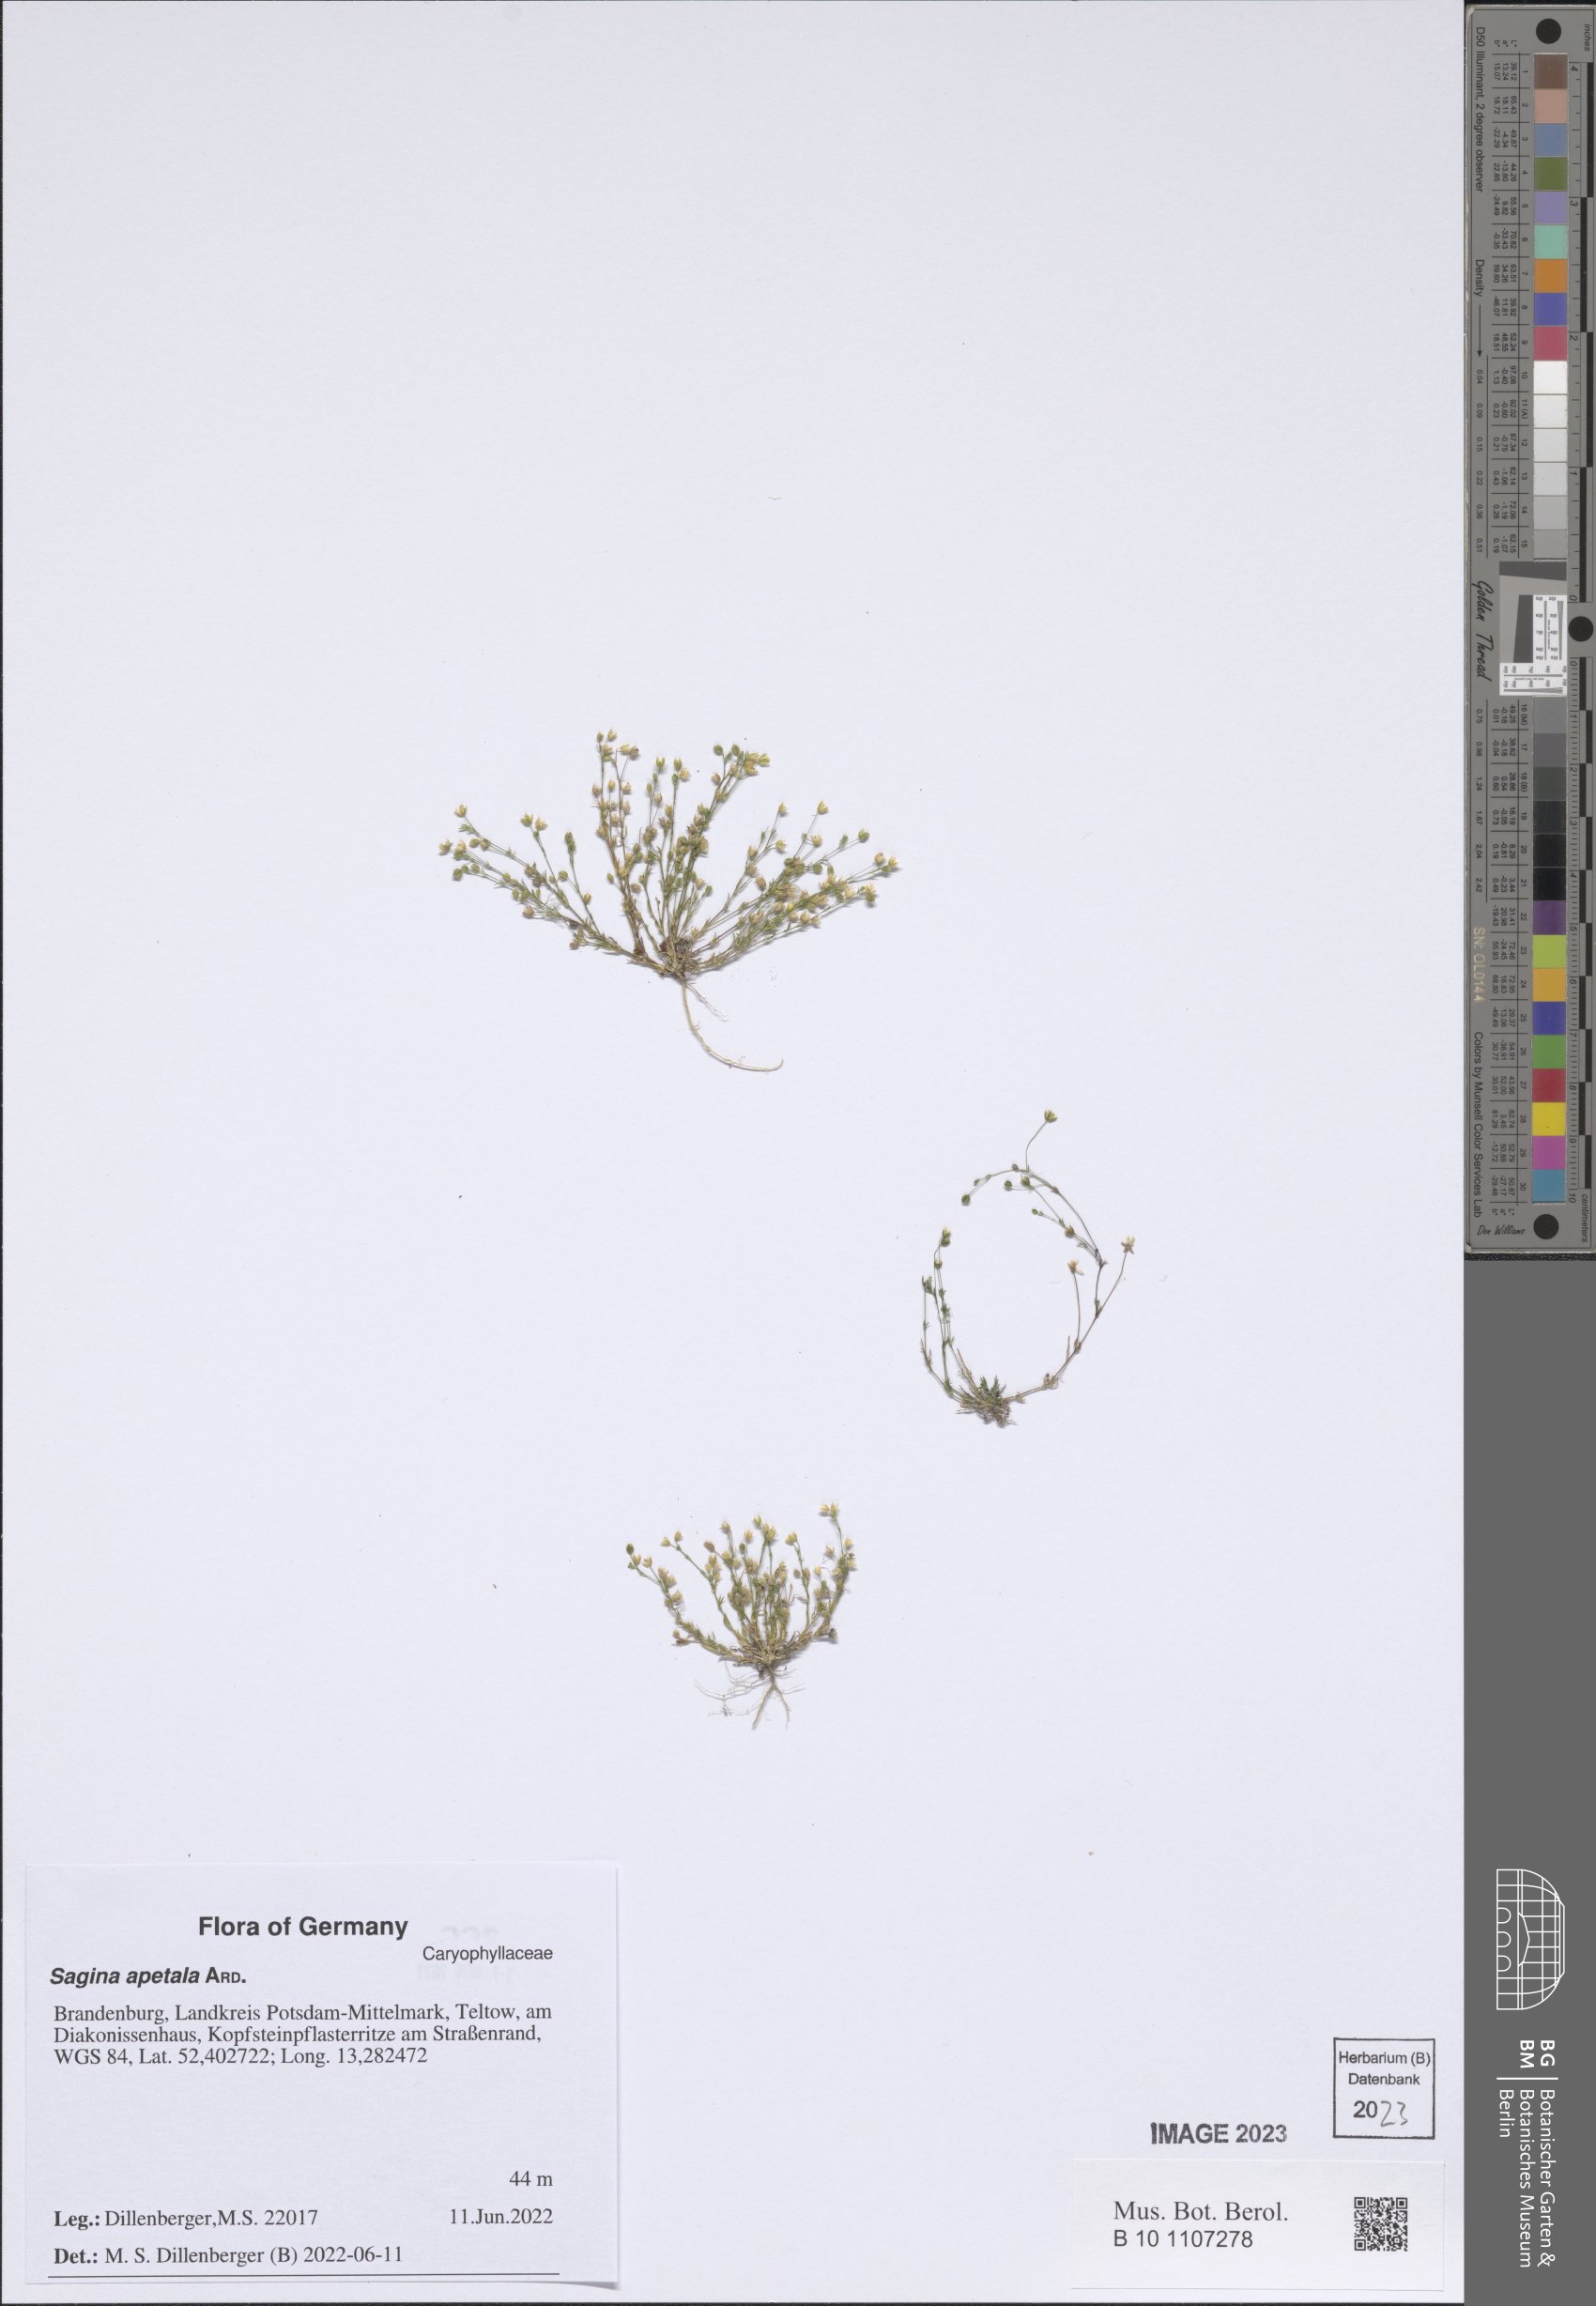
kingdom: Plantae
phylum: Tracheophyta
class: Magnoliopsida
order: Caryophyllales
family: Caryophyllaceae
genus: Sagina
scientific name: Sagina apetala
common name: Annual pearlwort
